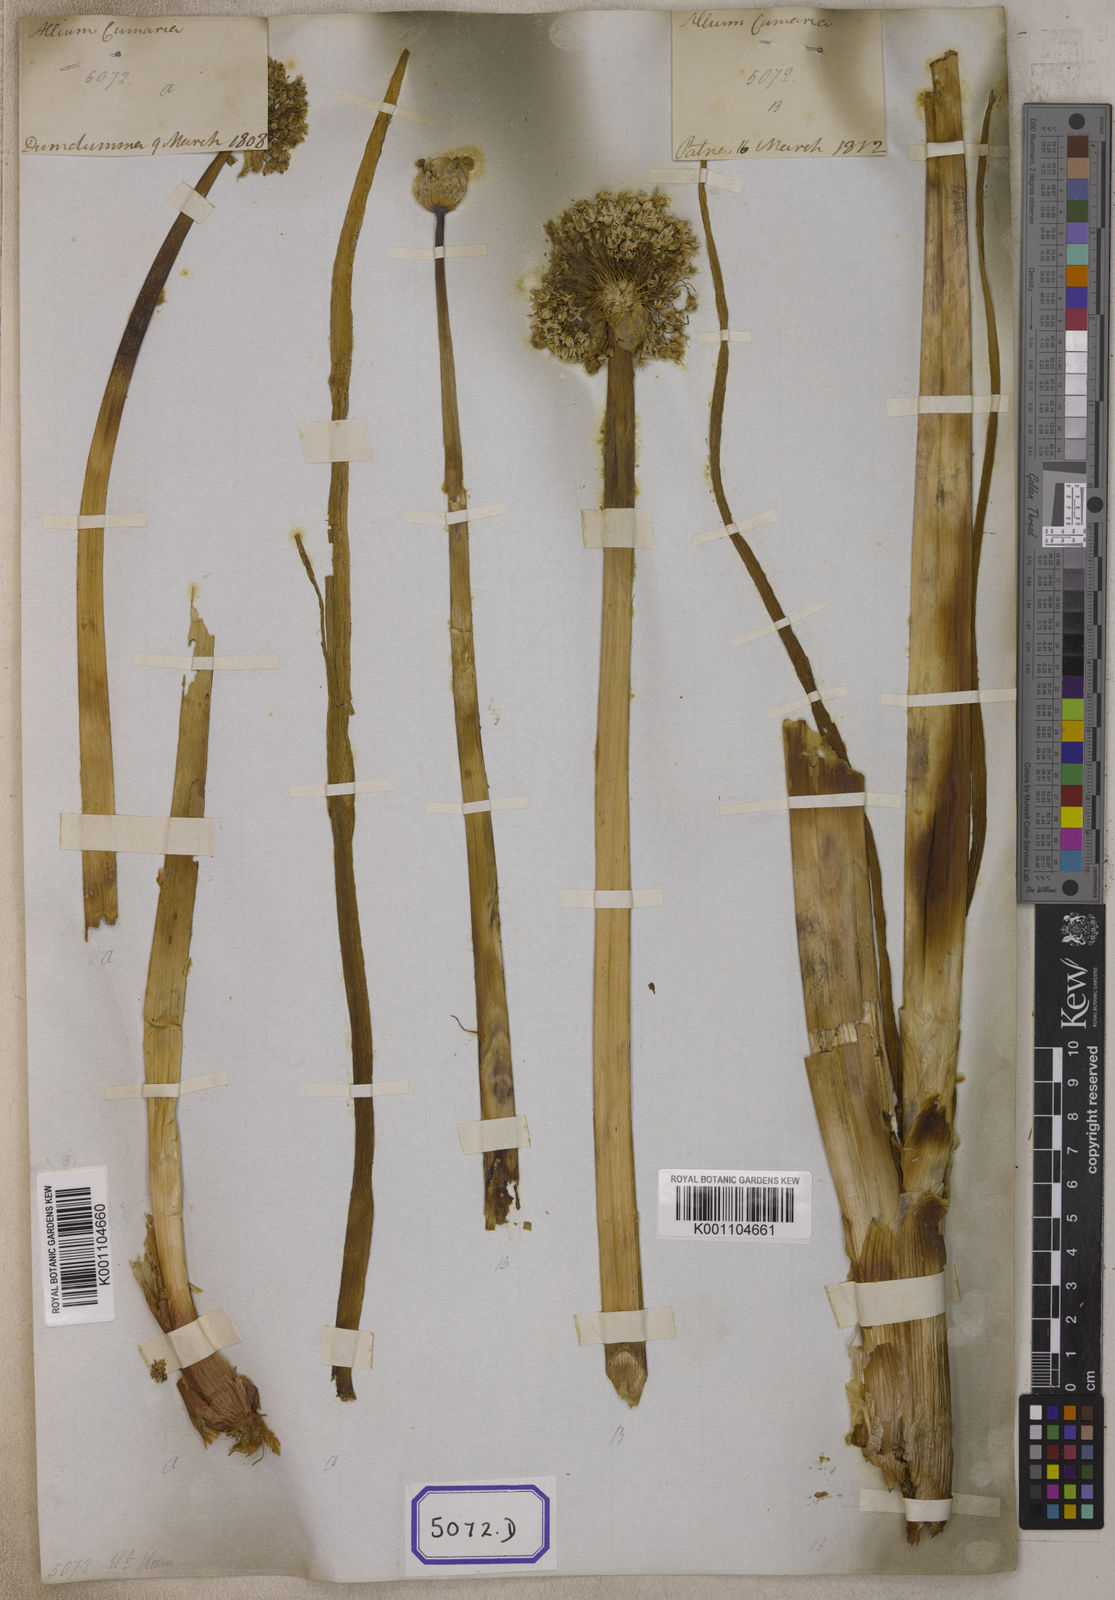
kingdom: Plantae
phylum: Tracheophyta
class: Liliopsida
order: Asparagales
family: Amaryllidaceae
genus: Allium
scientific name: Allium cepa
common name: Onion
